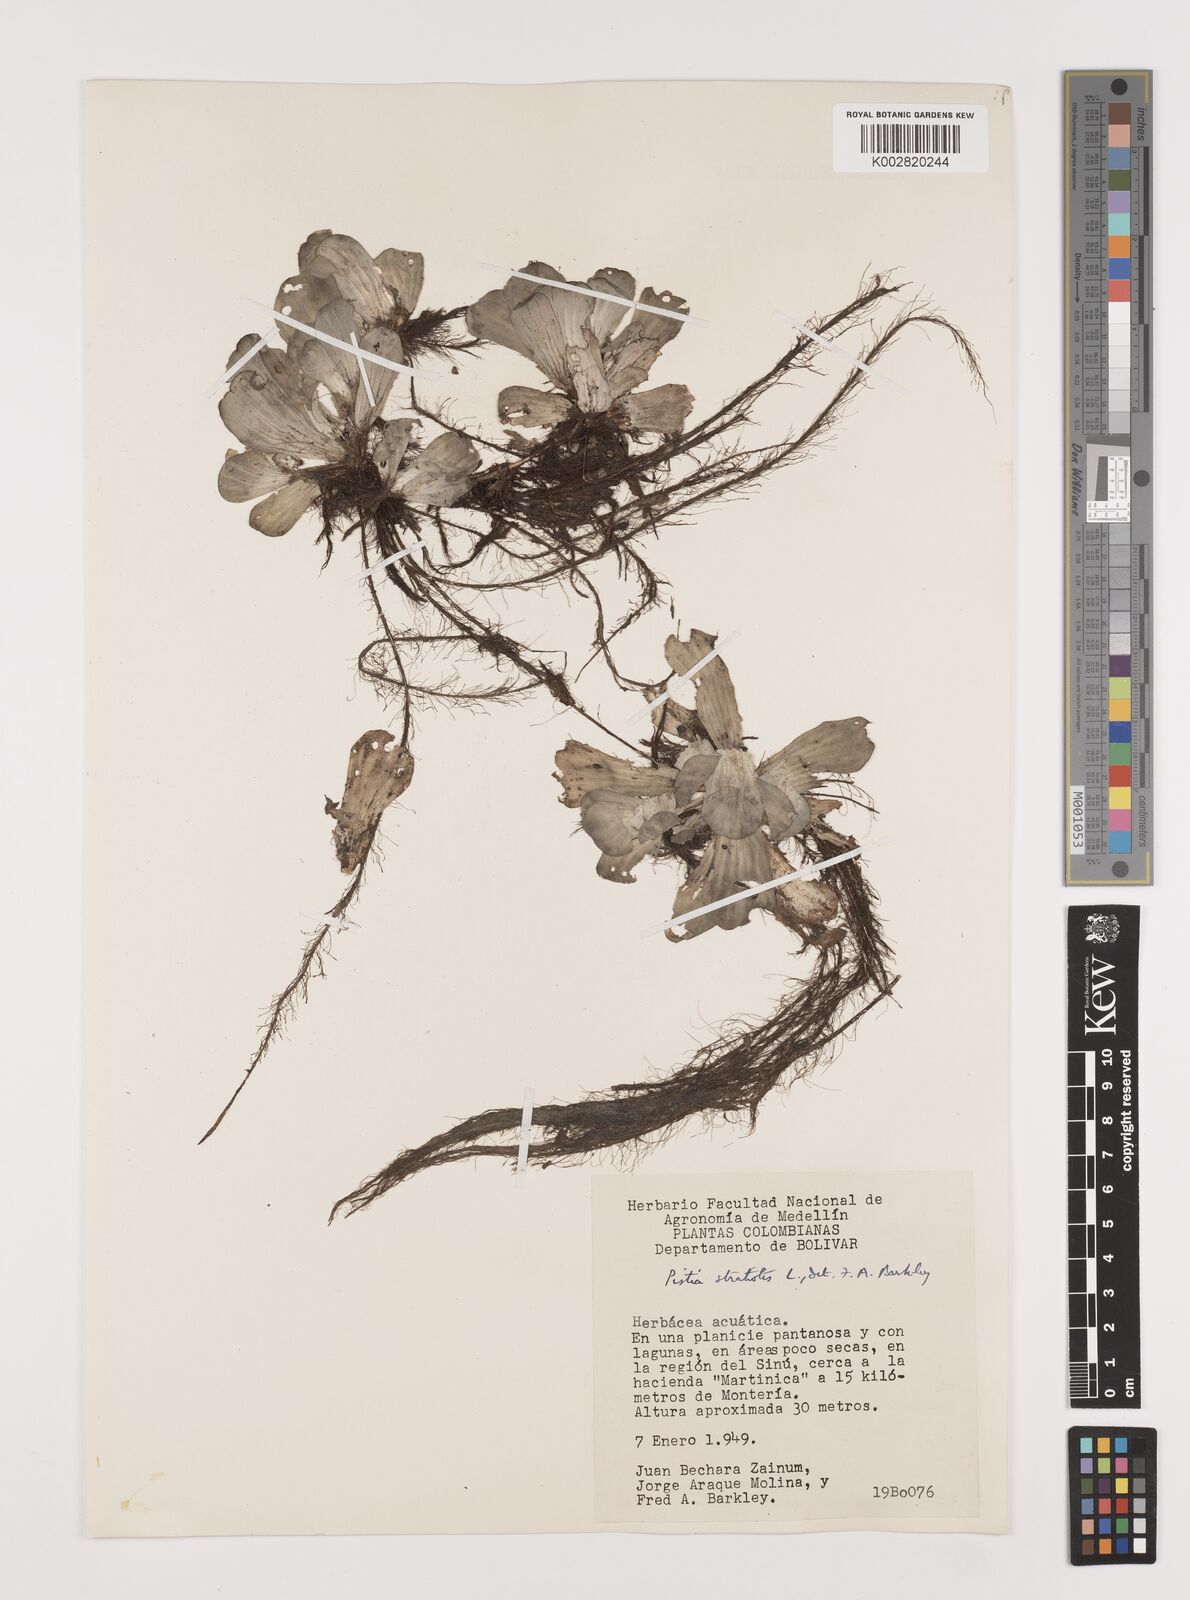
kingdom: Plantae
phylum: Tracheophyta
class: Liliopsida
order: Alismatales
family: Araceae
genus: Pistia
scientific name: Pistia stratiotes
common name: Water lettuce
